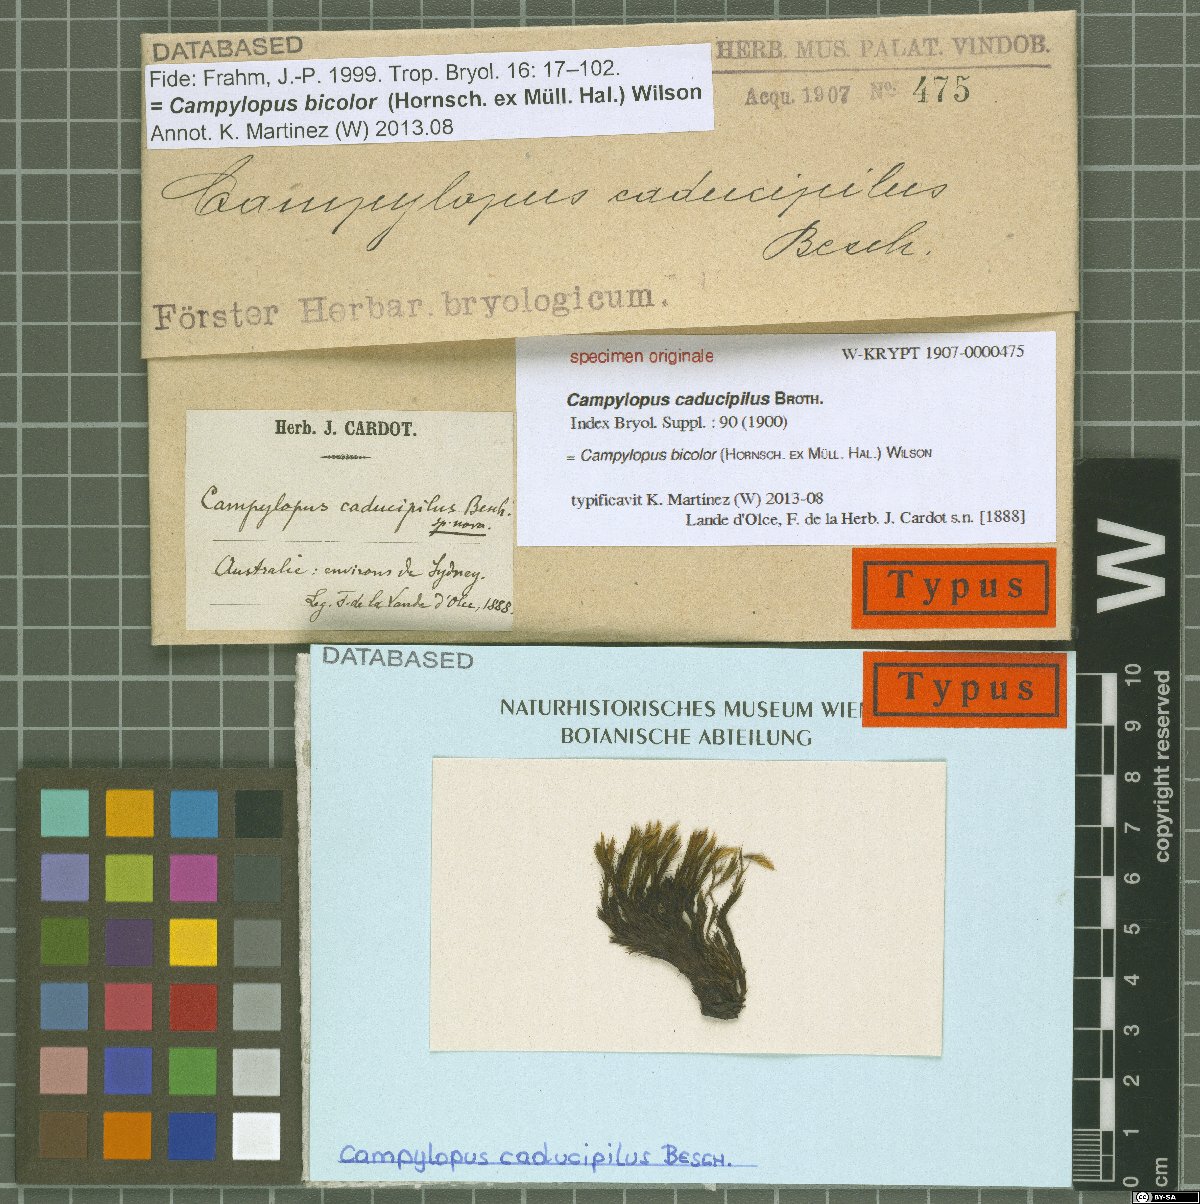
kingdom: Protozoa
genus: Campylopus
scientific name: Campylopus
